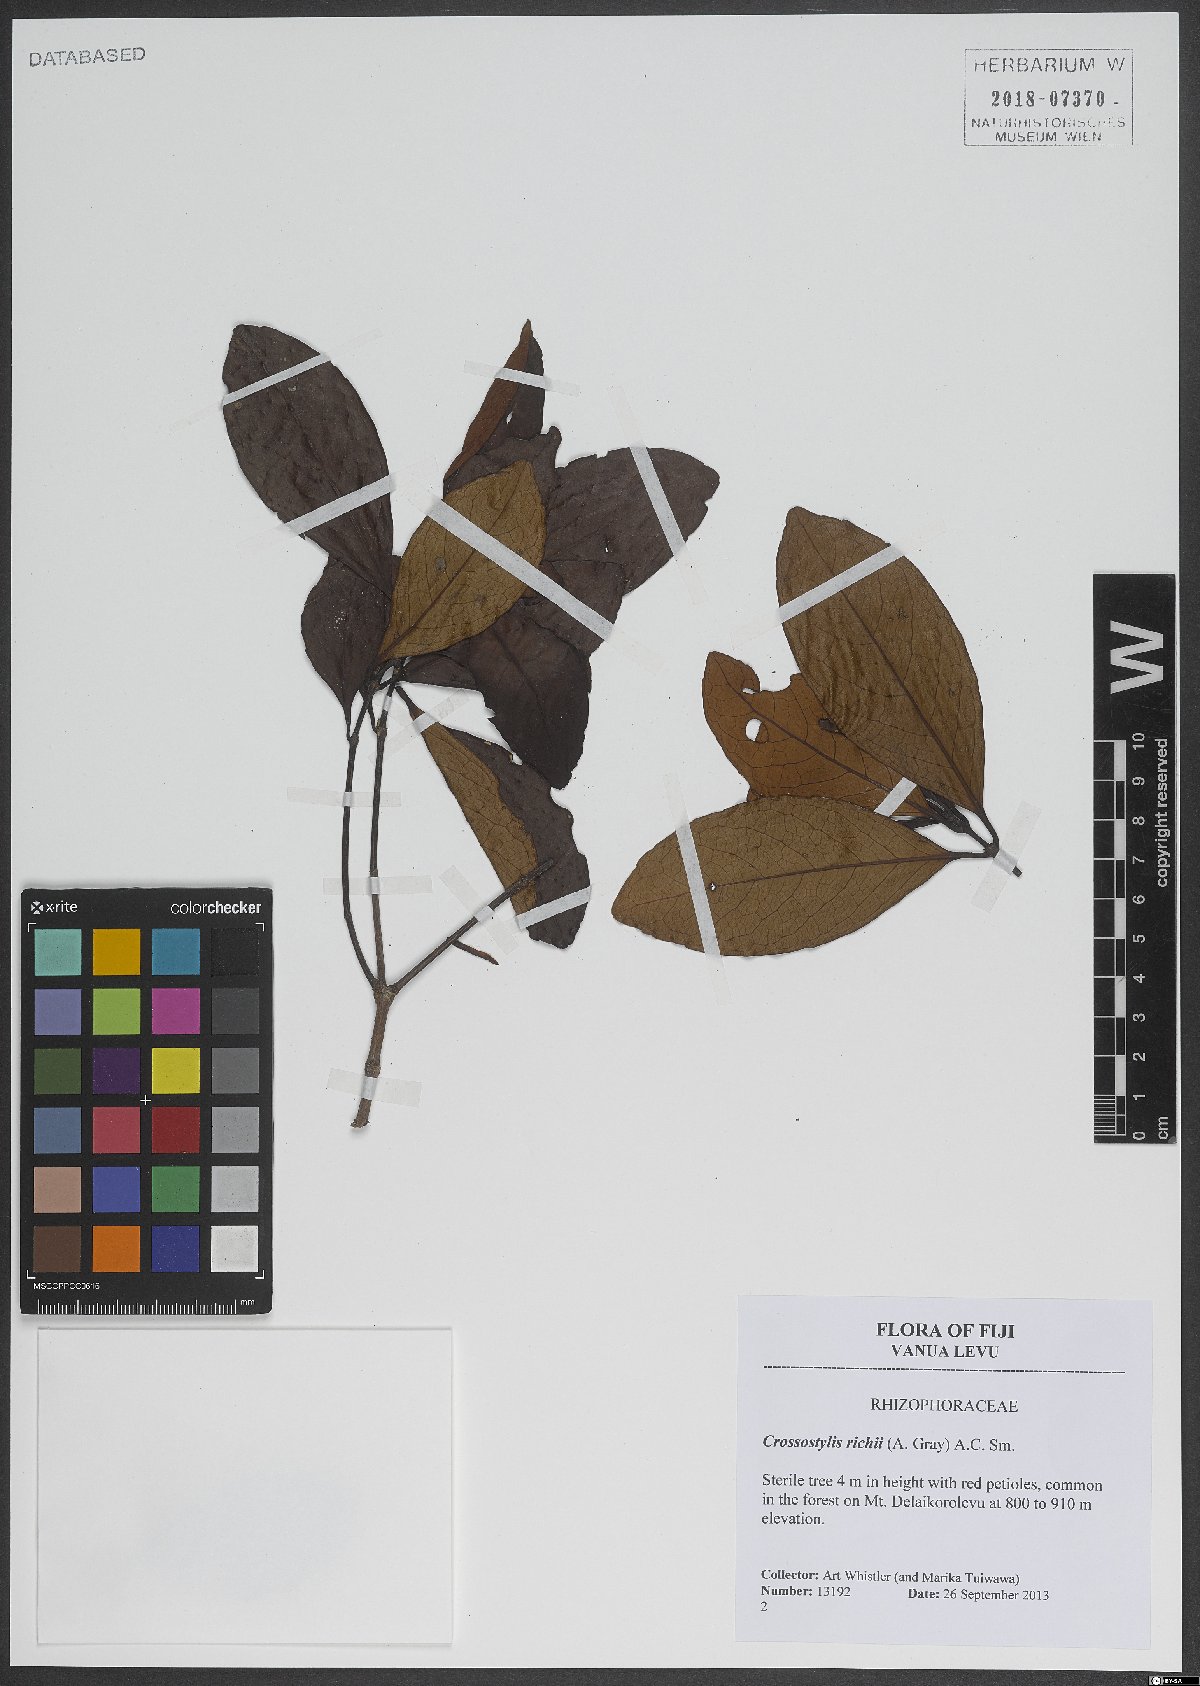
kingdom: Plantae
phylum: Tracheophyta
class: Magnoliopsida
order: Malpighiales
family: Rhizophoraceae
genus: Crossostylis
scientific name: Crossostylis richii
